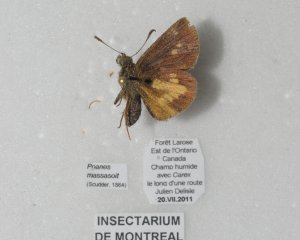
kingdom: Animalia
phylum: Arthropoda
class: Insecta
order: Lepidoptera
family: Hesperiidae
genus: Poanes
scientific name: Poanes massasoit
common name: Mulberry Wing
